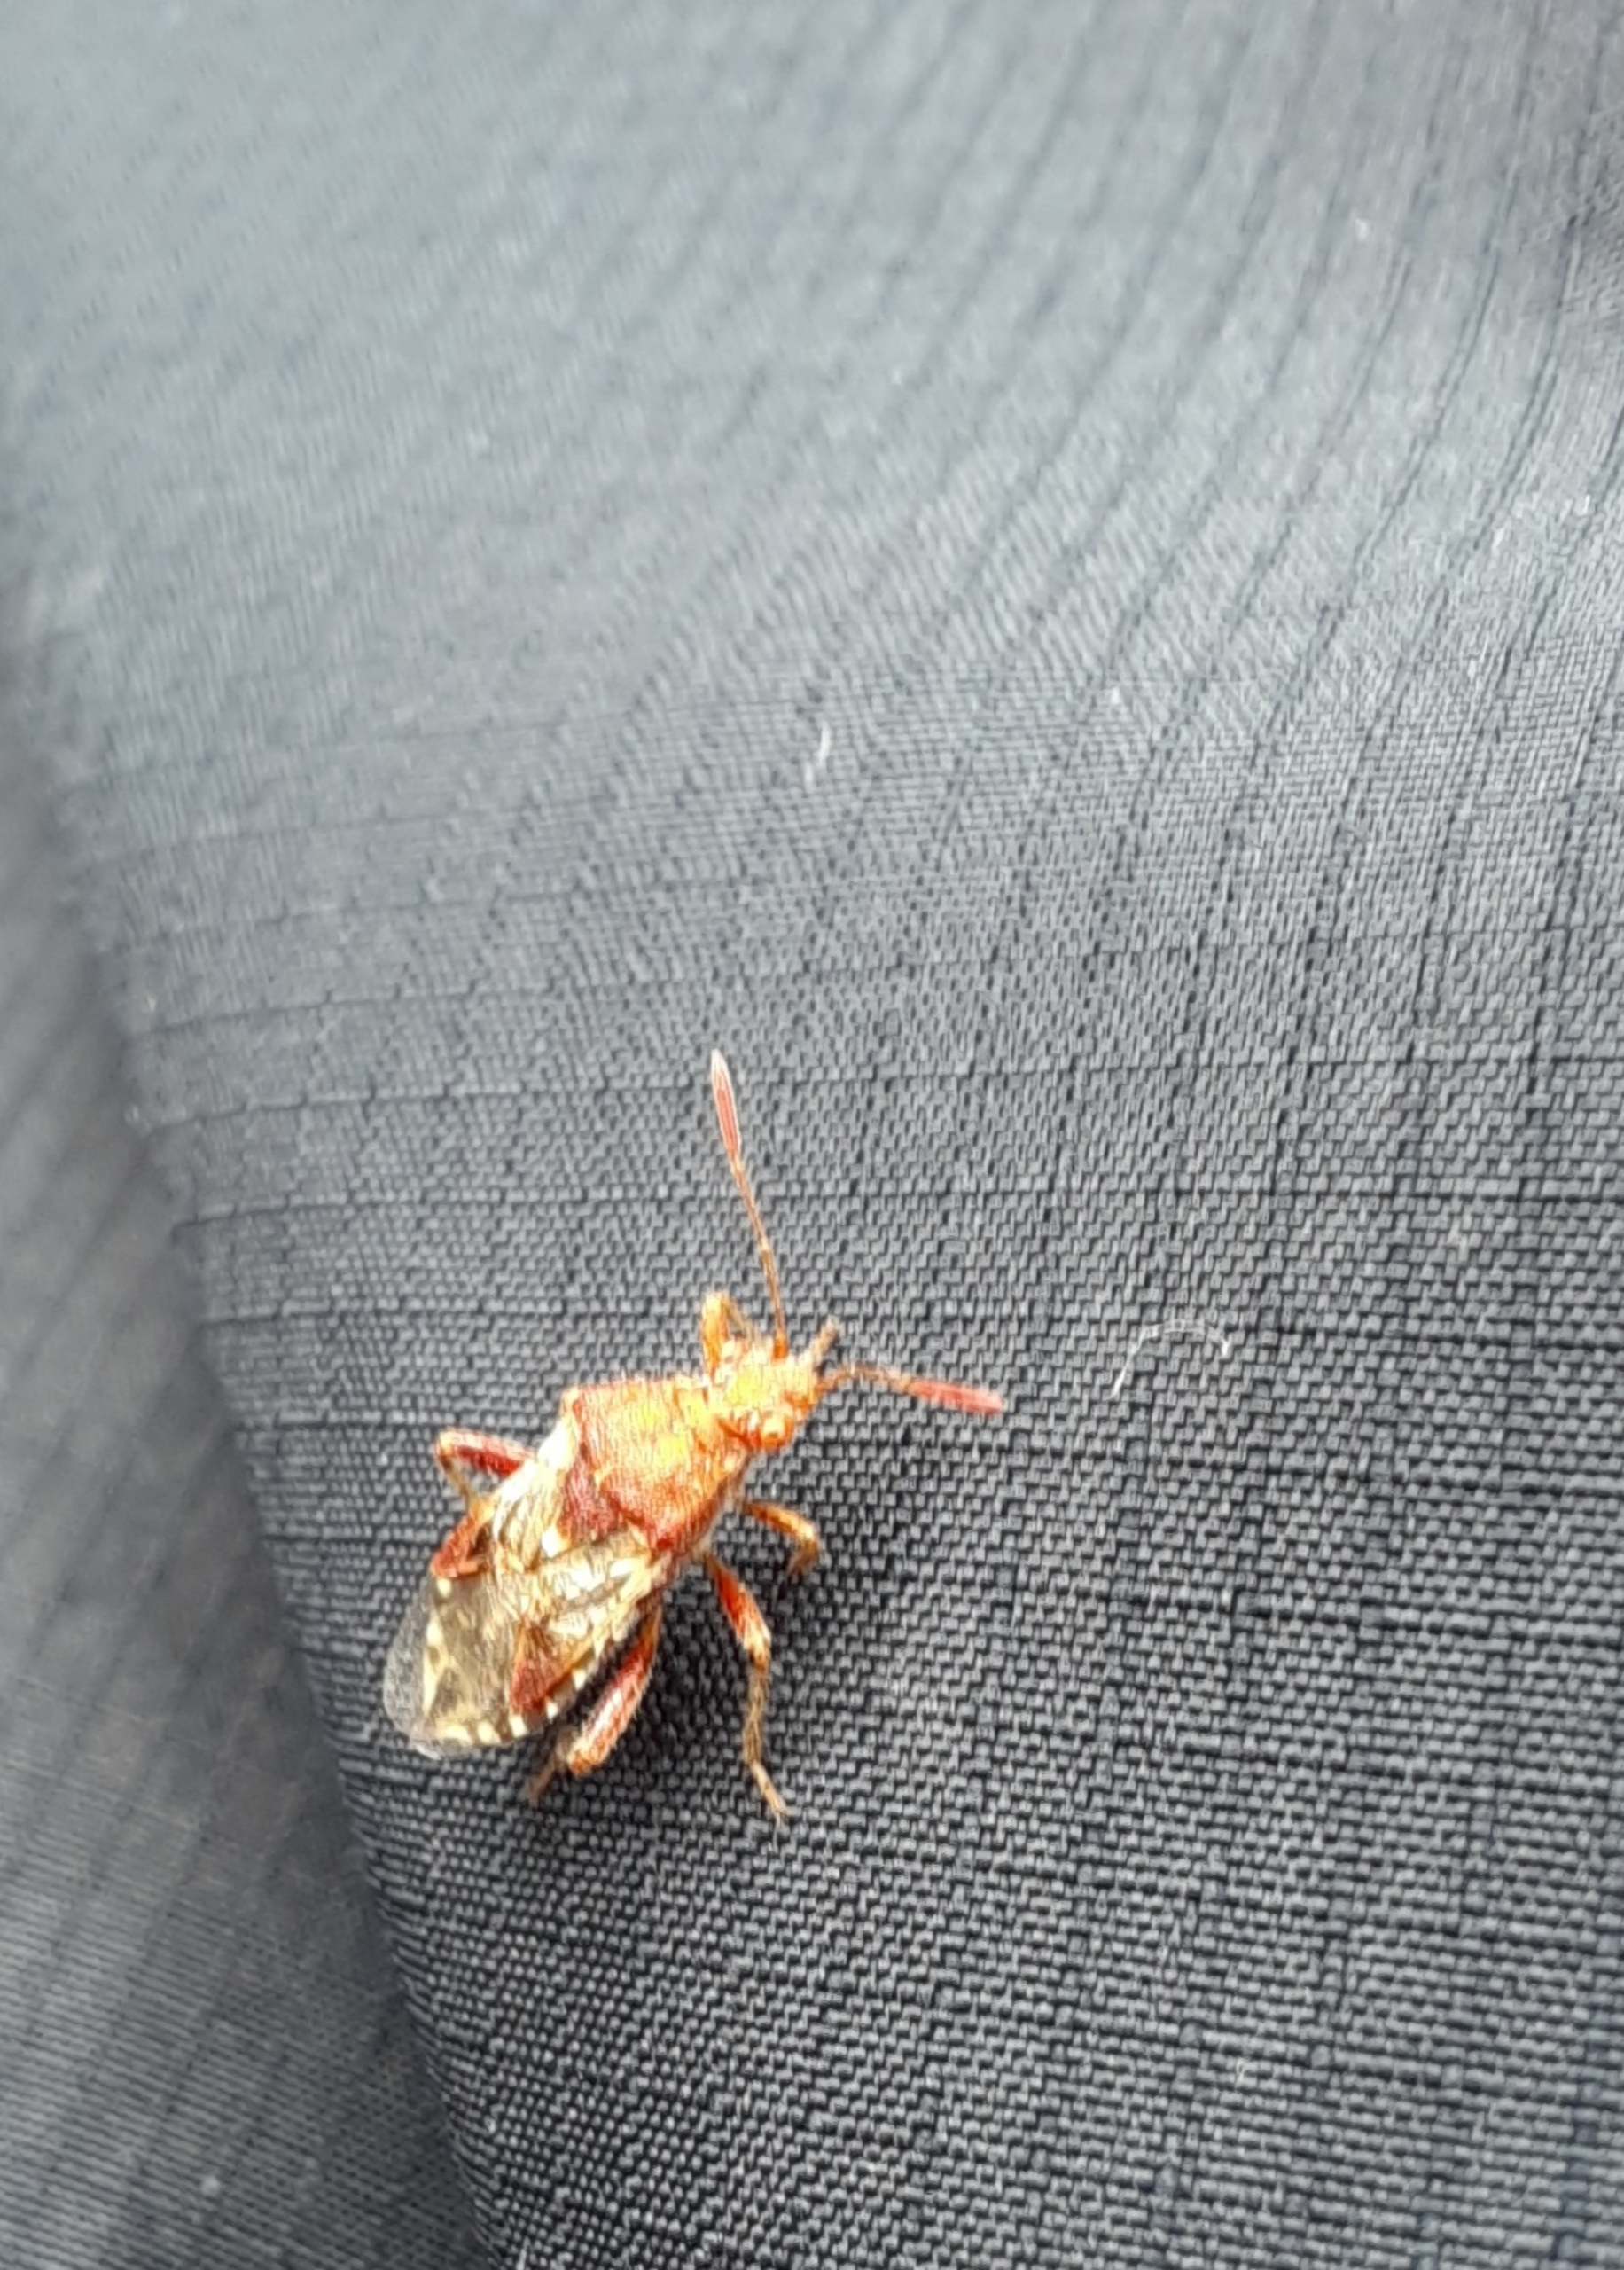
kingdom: Animalia
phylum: Arthropoda
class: Insecta
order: Hemiptera
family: Rhopalidae
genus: Rhopalus
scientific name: Rhopalus subrufus
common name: Skovkanttæge
